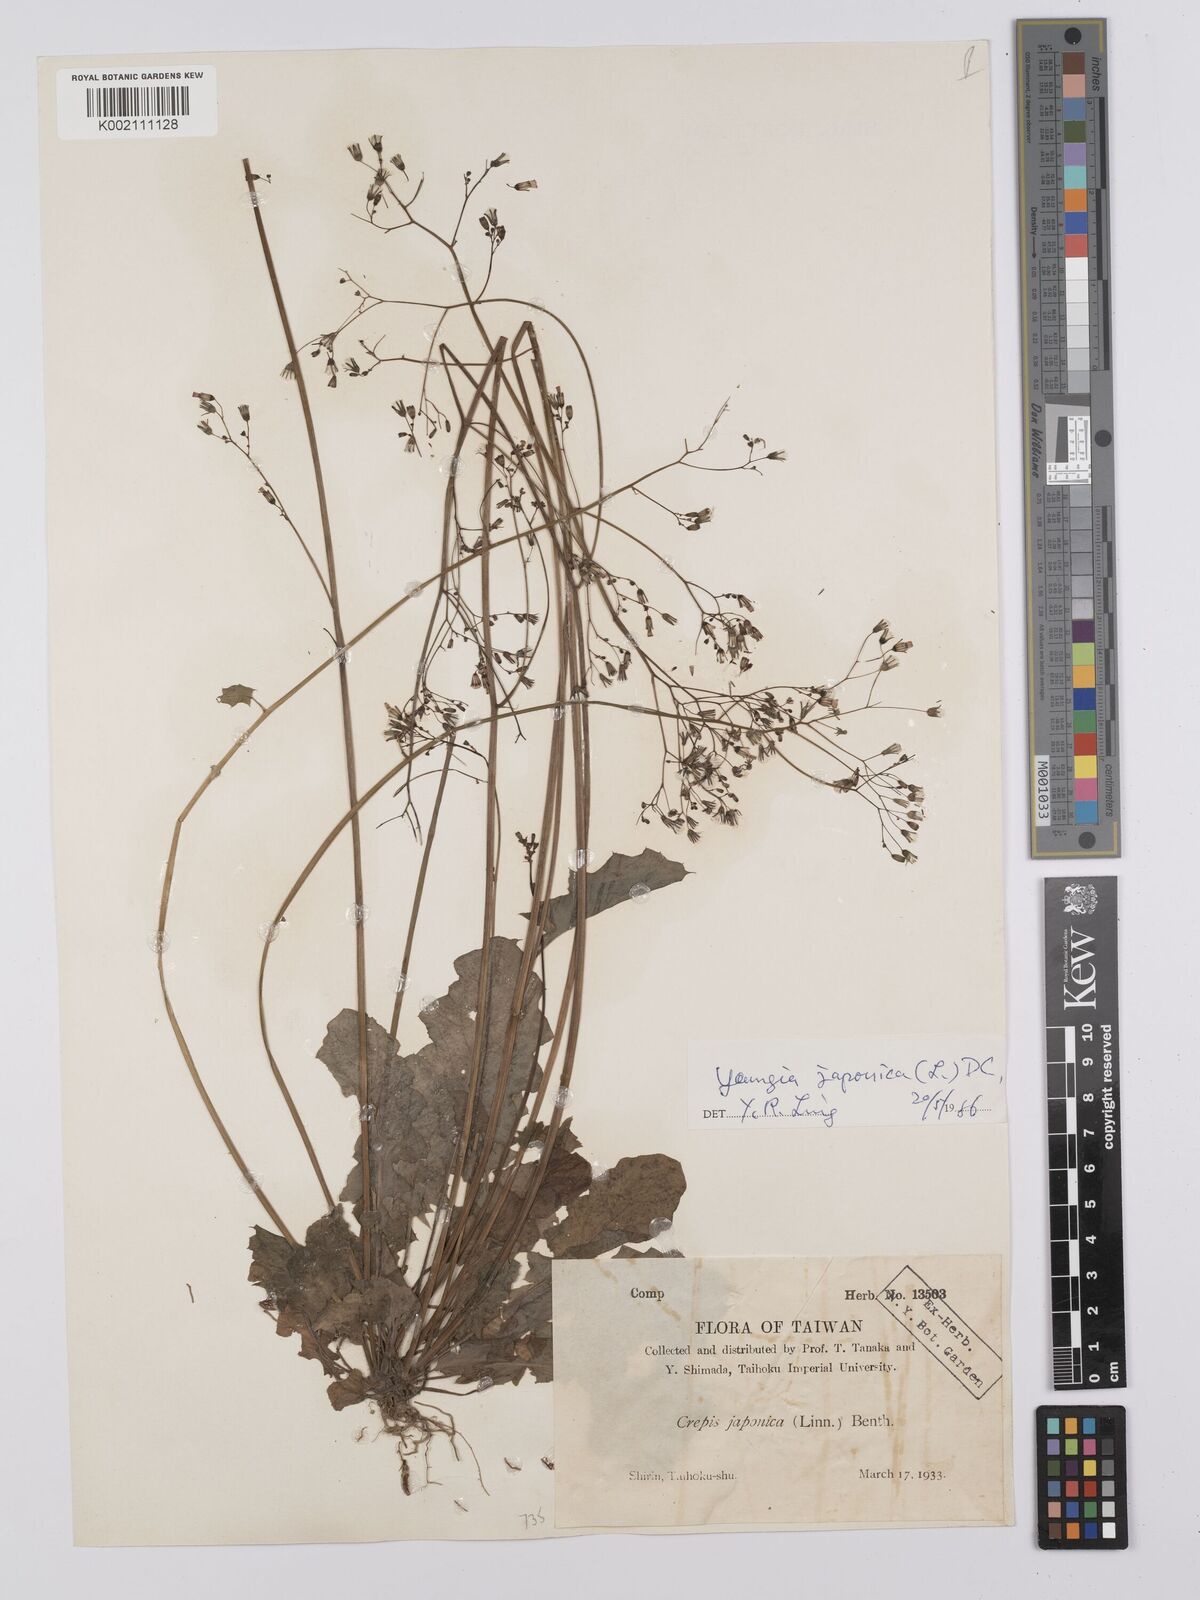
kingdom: Plantae
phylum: Tracheophyta
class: Magnoliopsida
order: Asterales
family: Asteraceae
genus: Youngia
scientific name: Youngia japonica
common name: Oriental false hawksbeard
